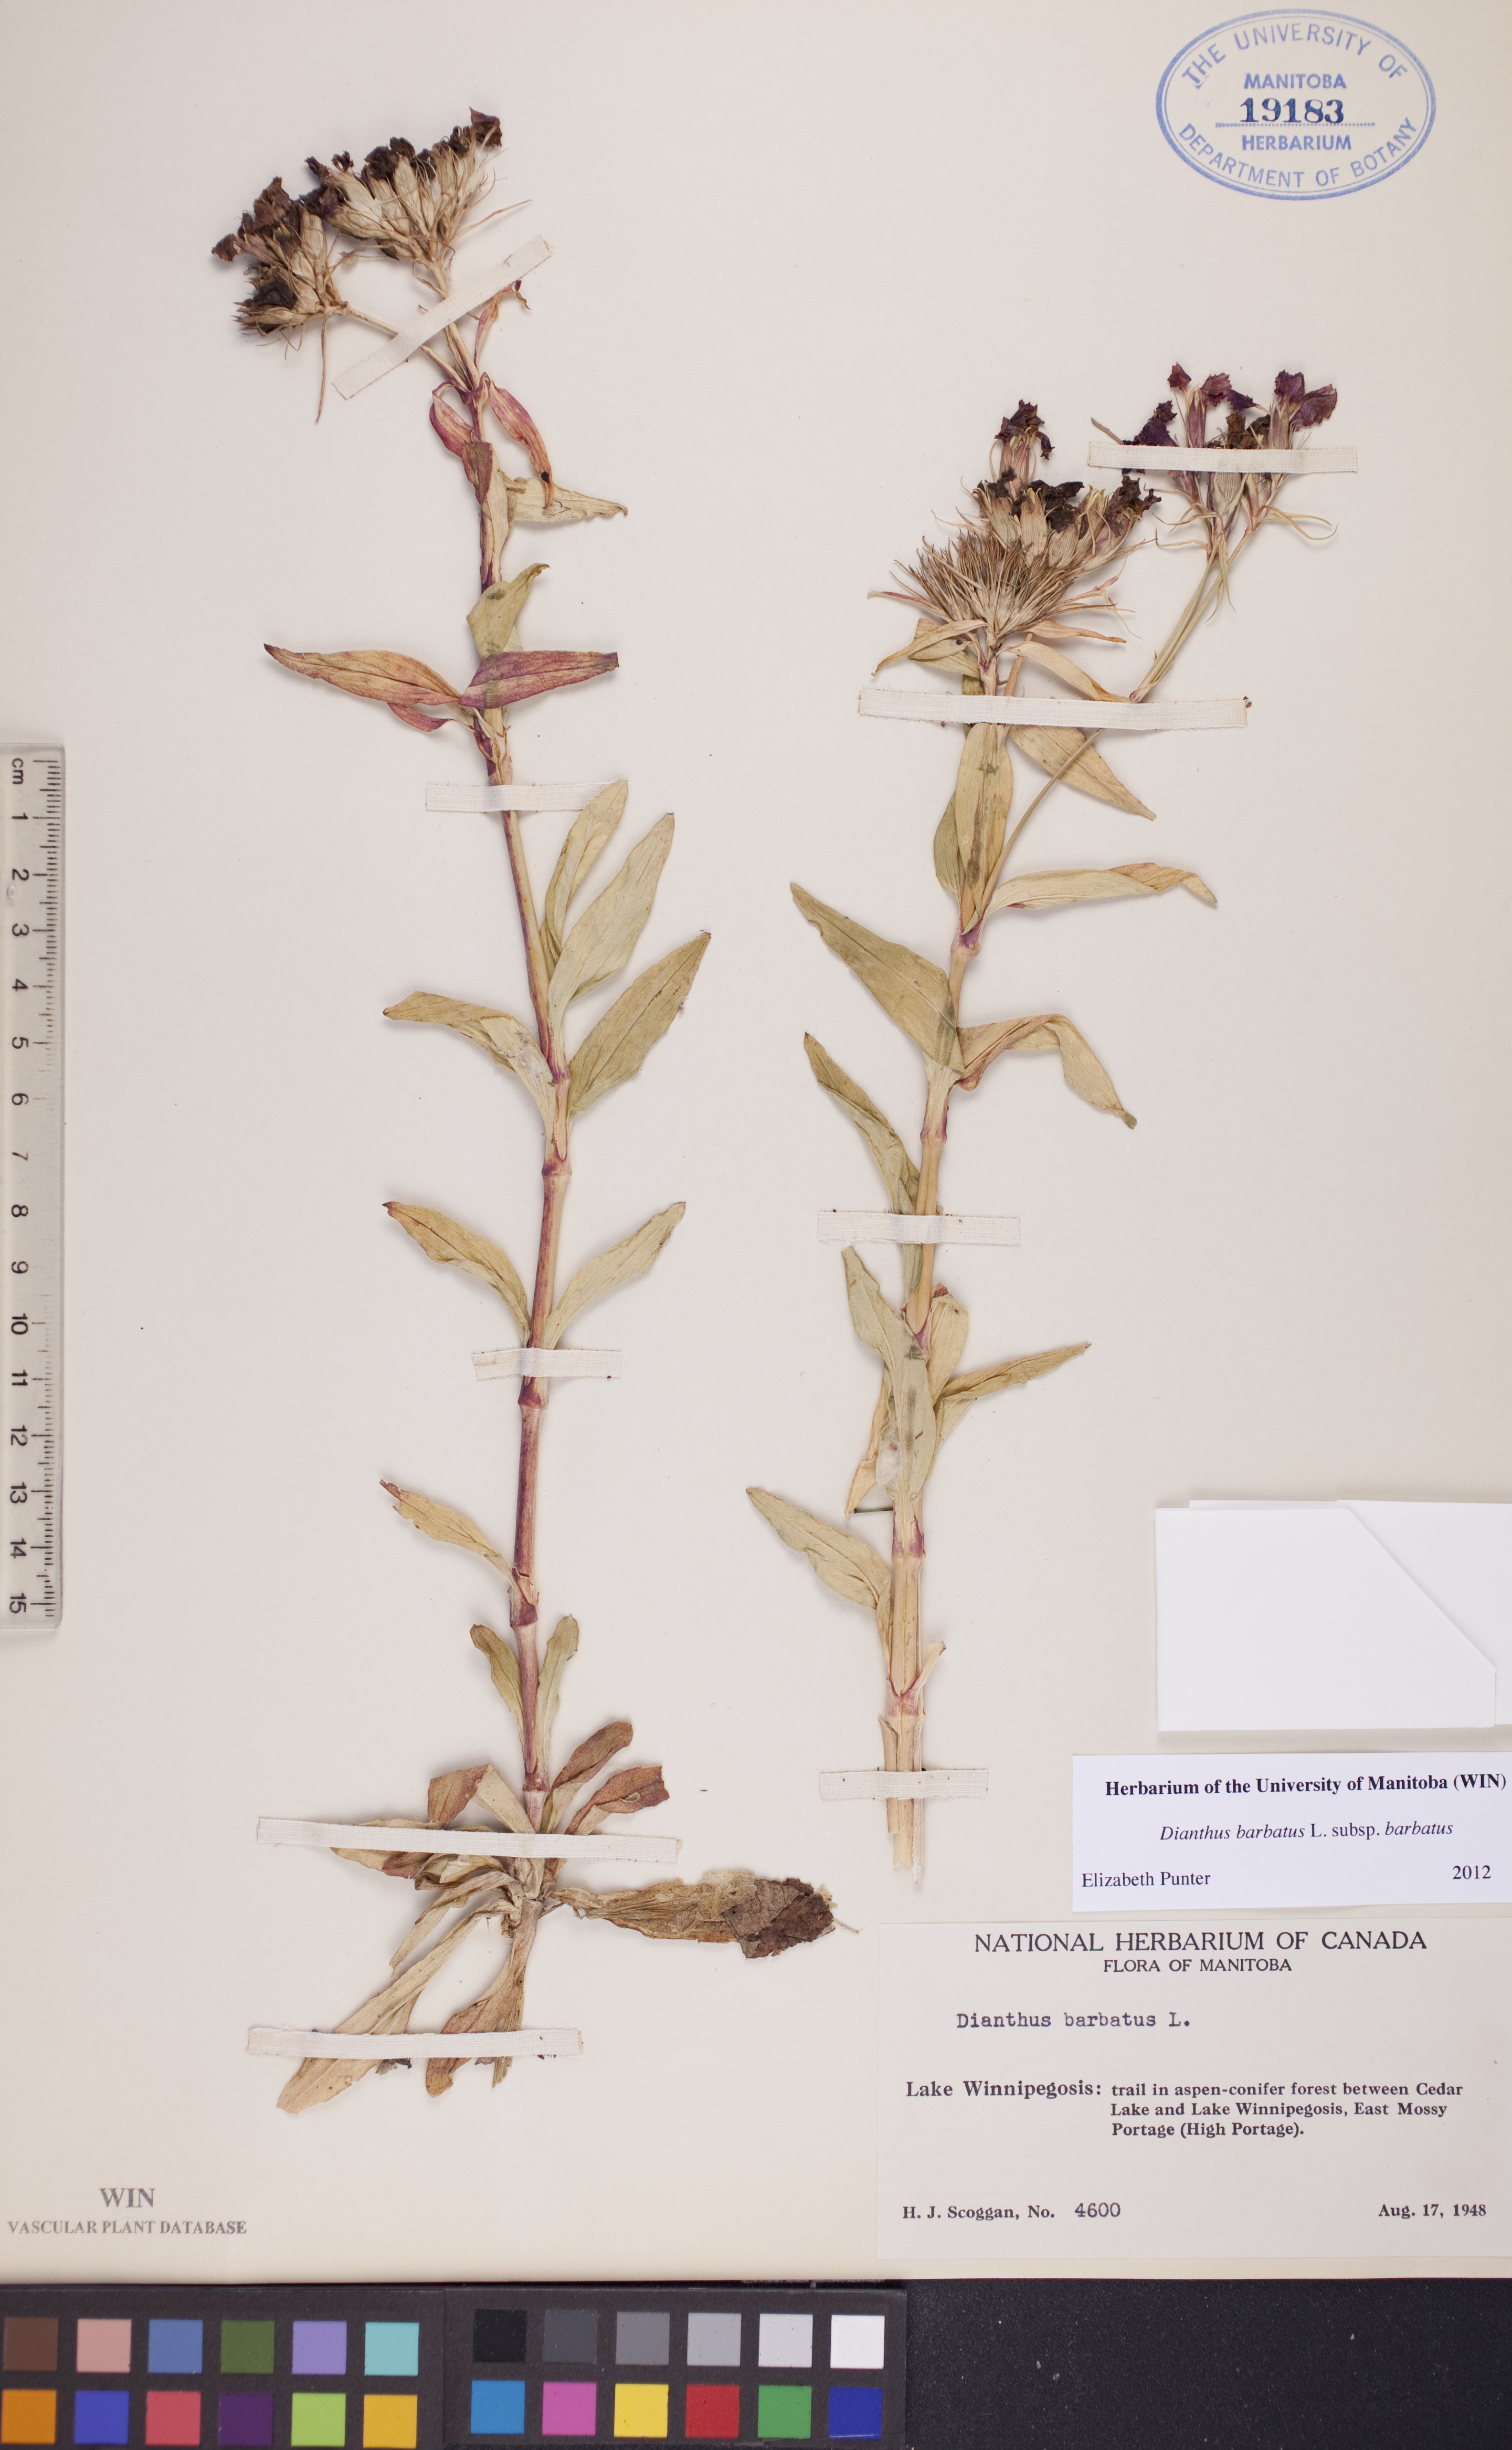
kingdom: Plantae
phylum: Tracheophyta
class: Magnoliopsida
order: Caryophyllales
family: Caryophyllaceae
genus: Dianthus
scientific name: Dianthus barbatus
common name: Sweet-william
